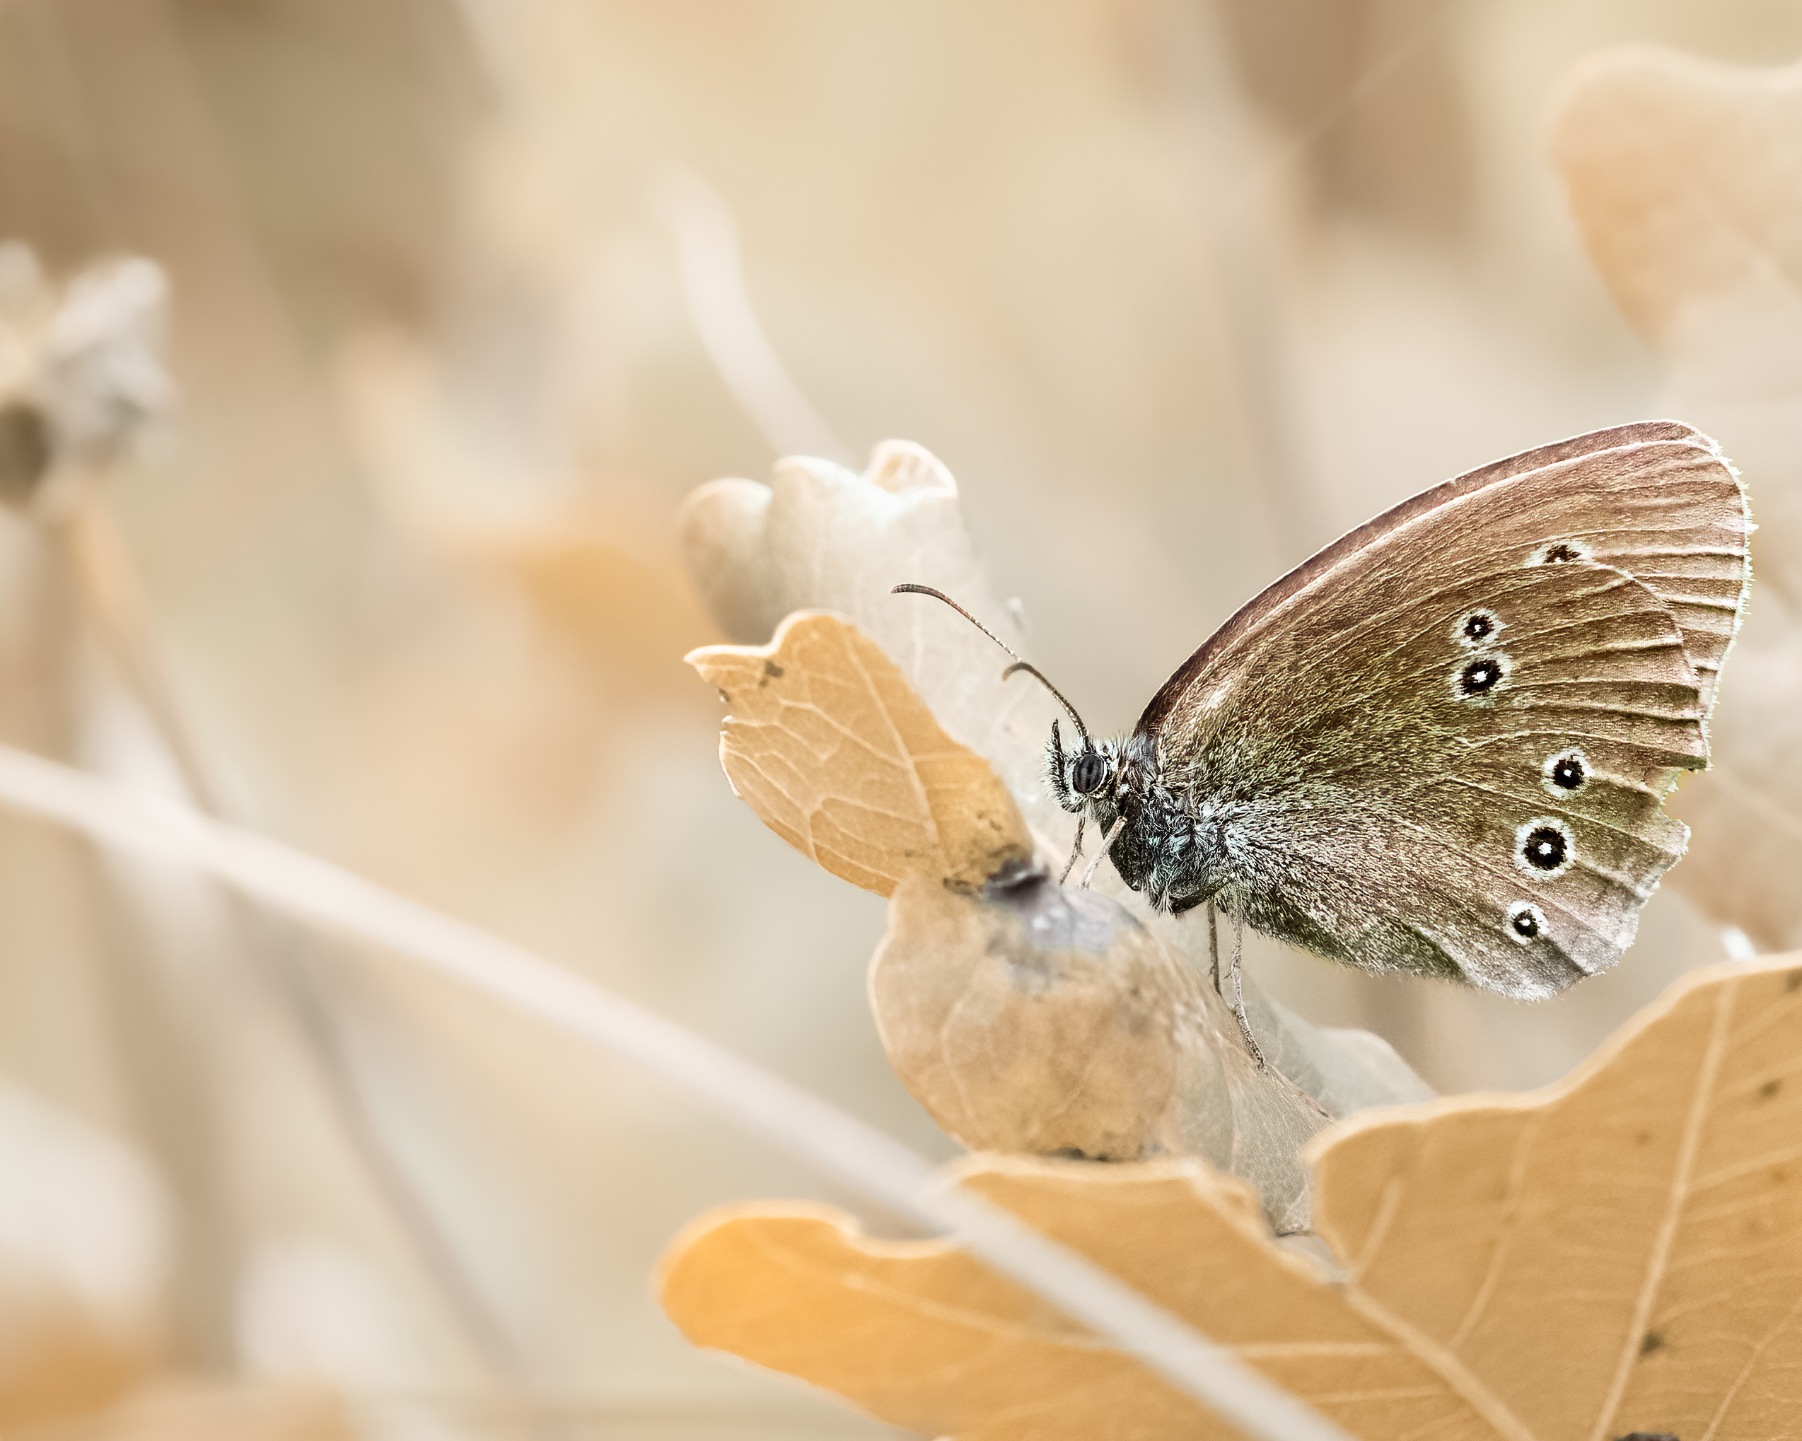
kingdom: Animalia
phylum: Arthropoda
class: Insecta
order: Lepidoptera
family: Nymphalidae
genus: Aphantopus
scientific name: Aphantopus hyperantus
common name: Engrandøje
